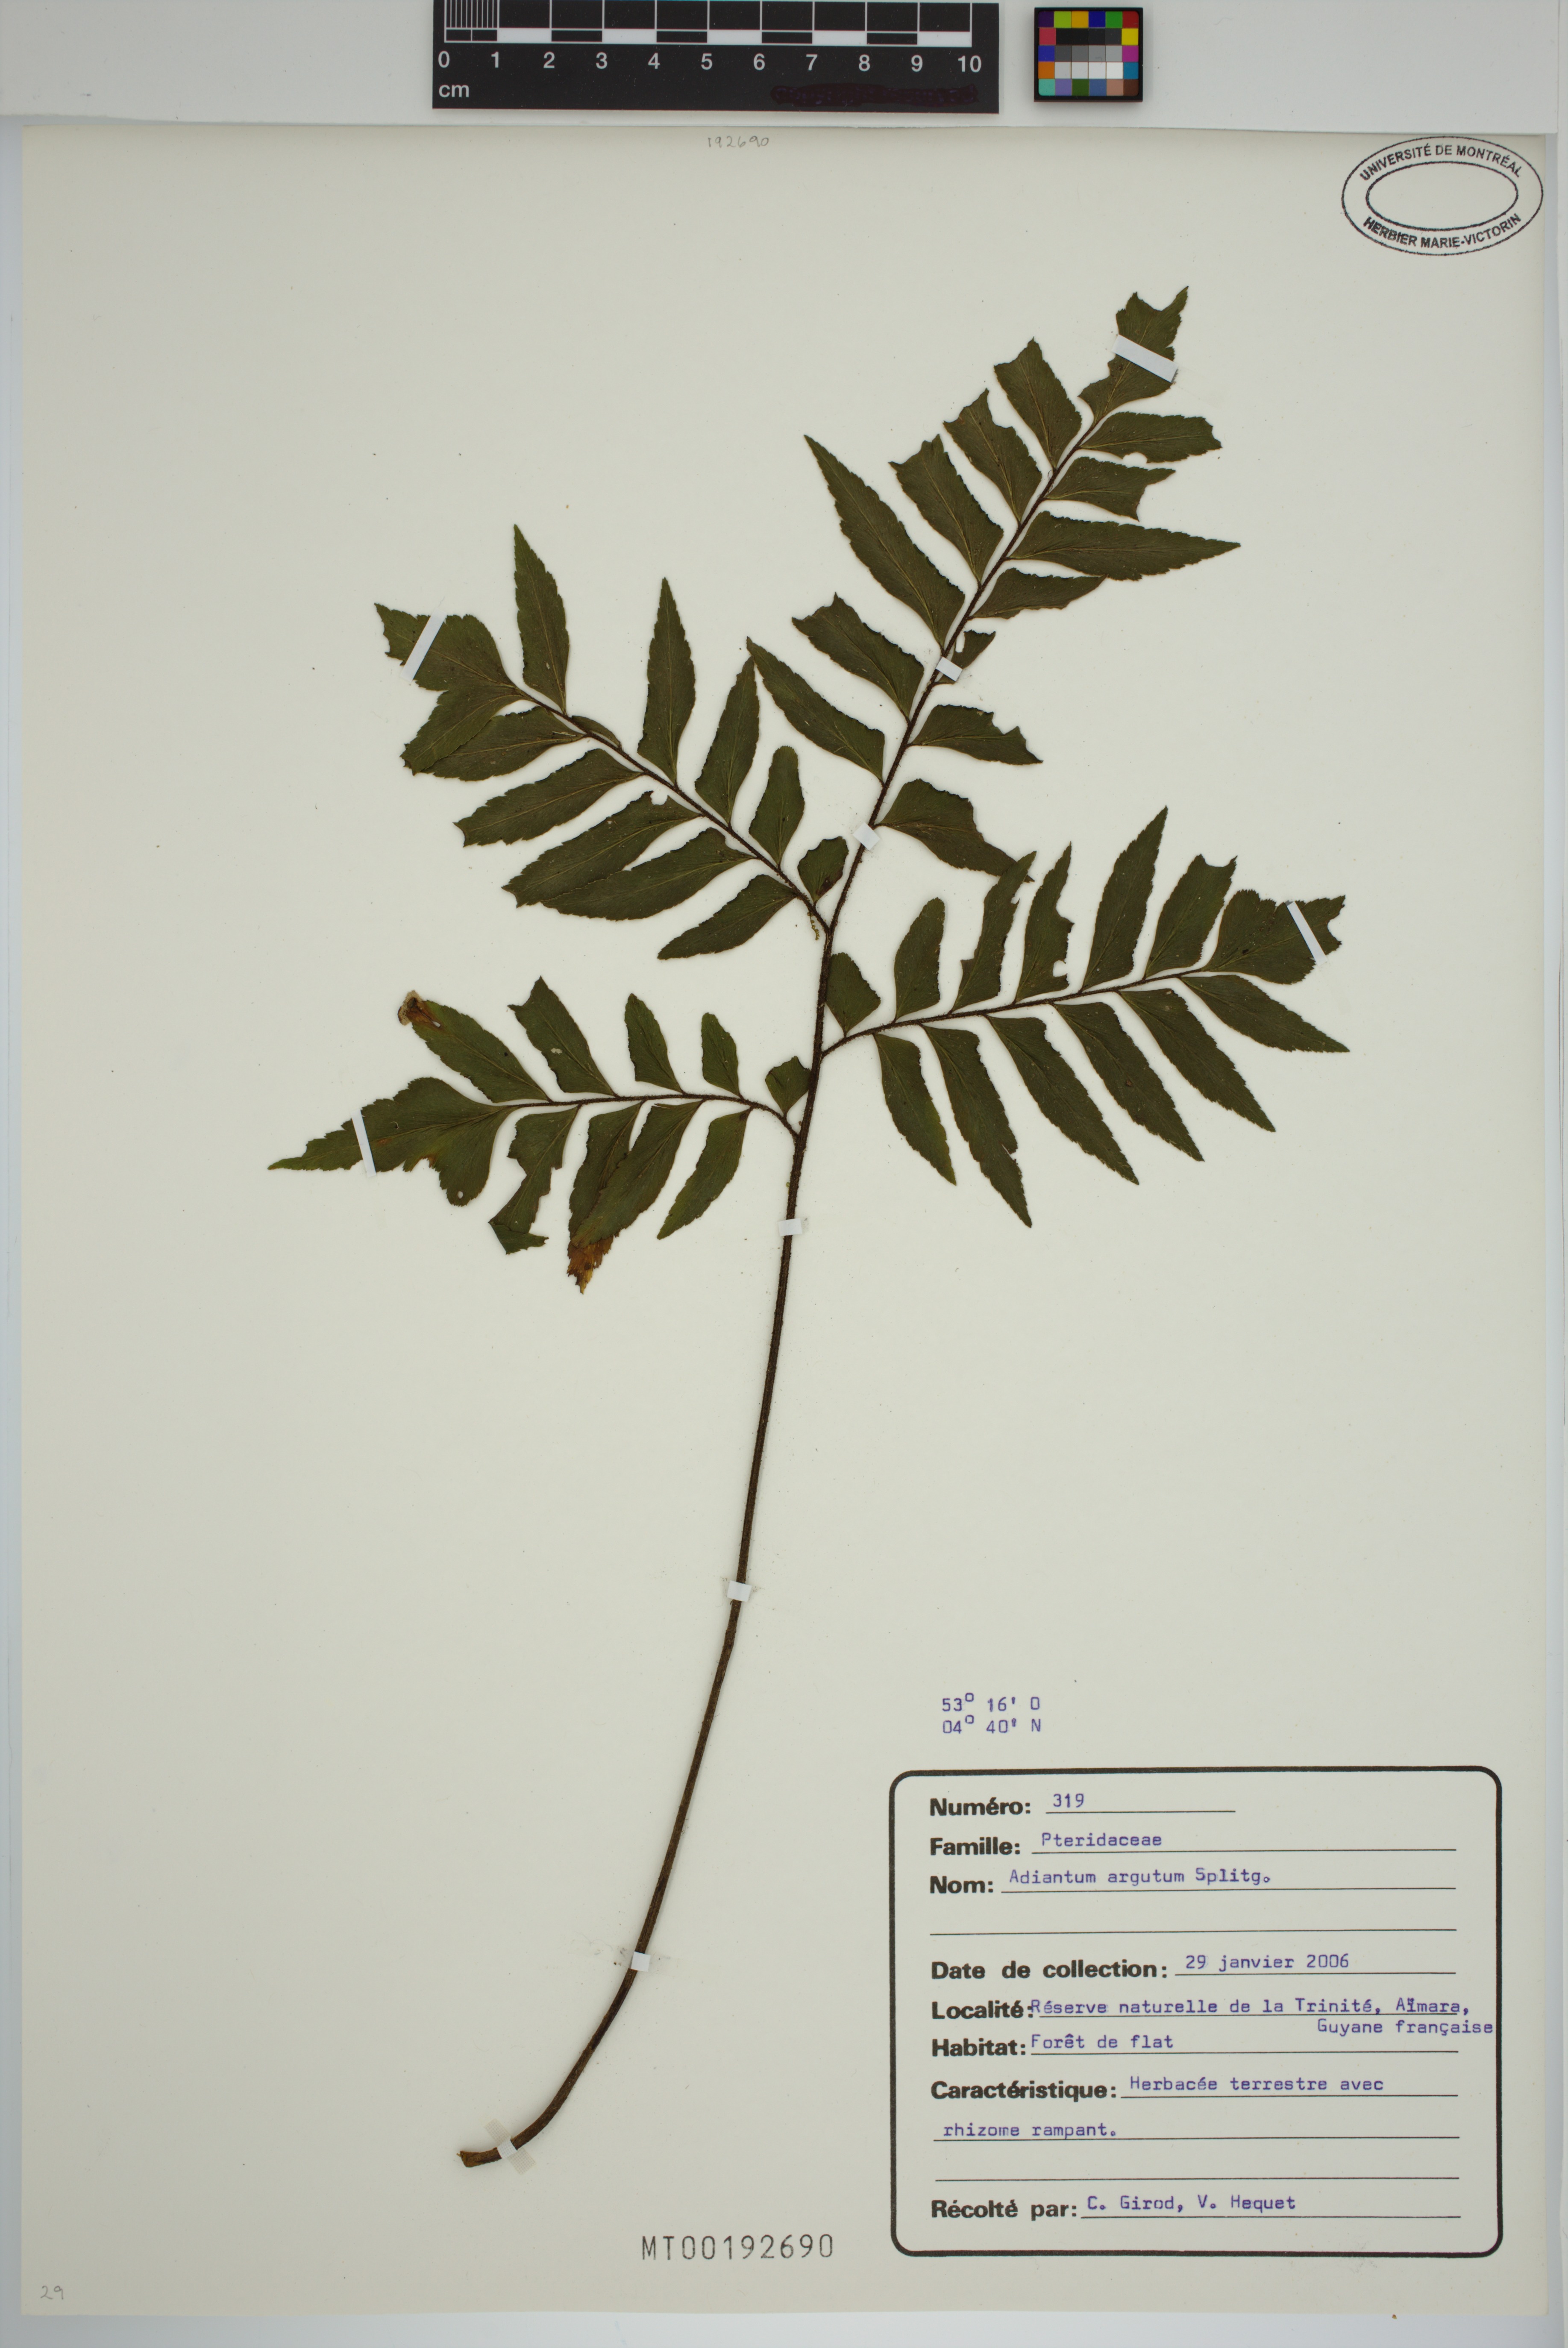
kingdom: Plantae
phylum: Tracheophyta
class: Polypodiopsida
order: Polypodiales
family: Pteridaceae
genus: Adiantum
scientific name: Adiantum argutum
